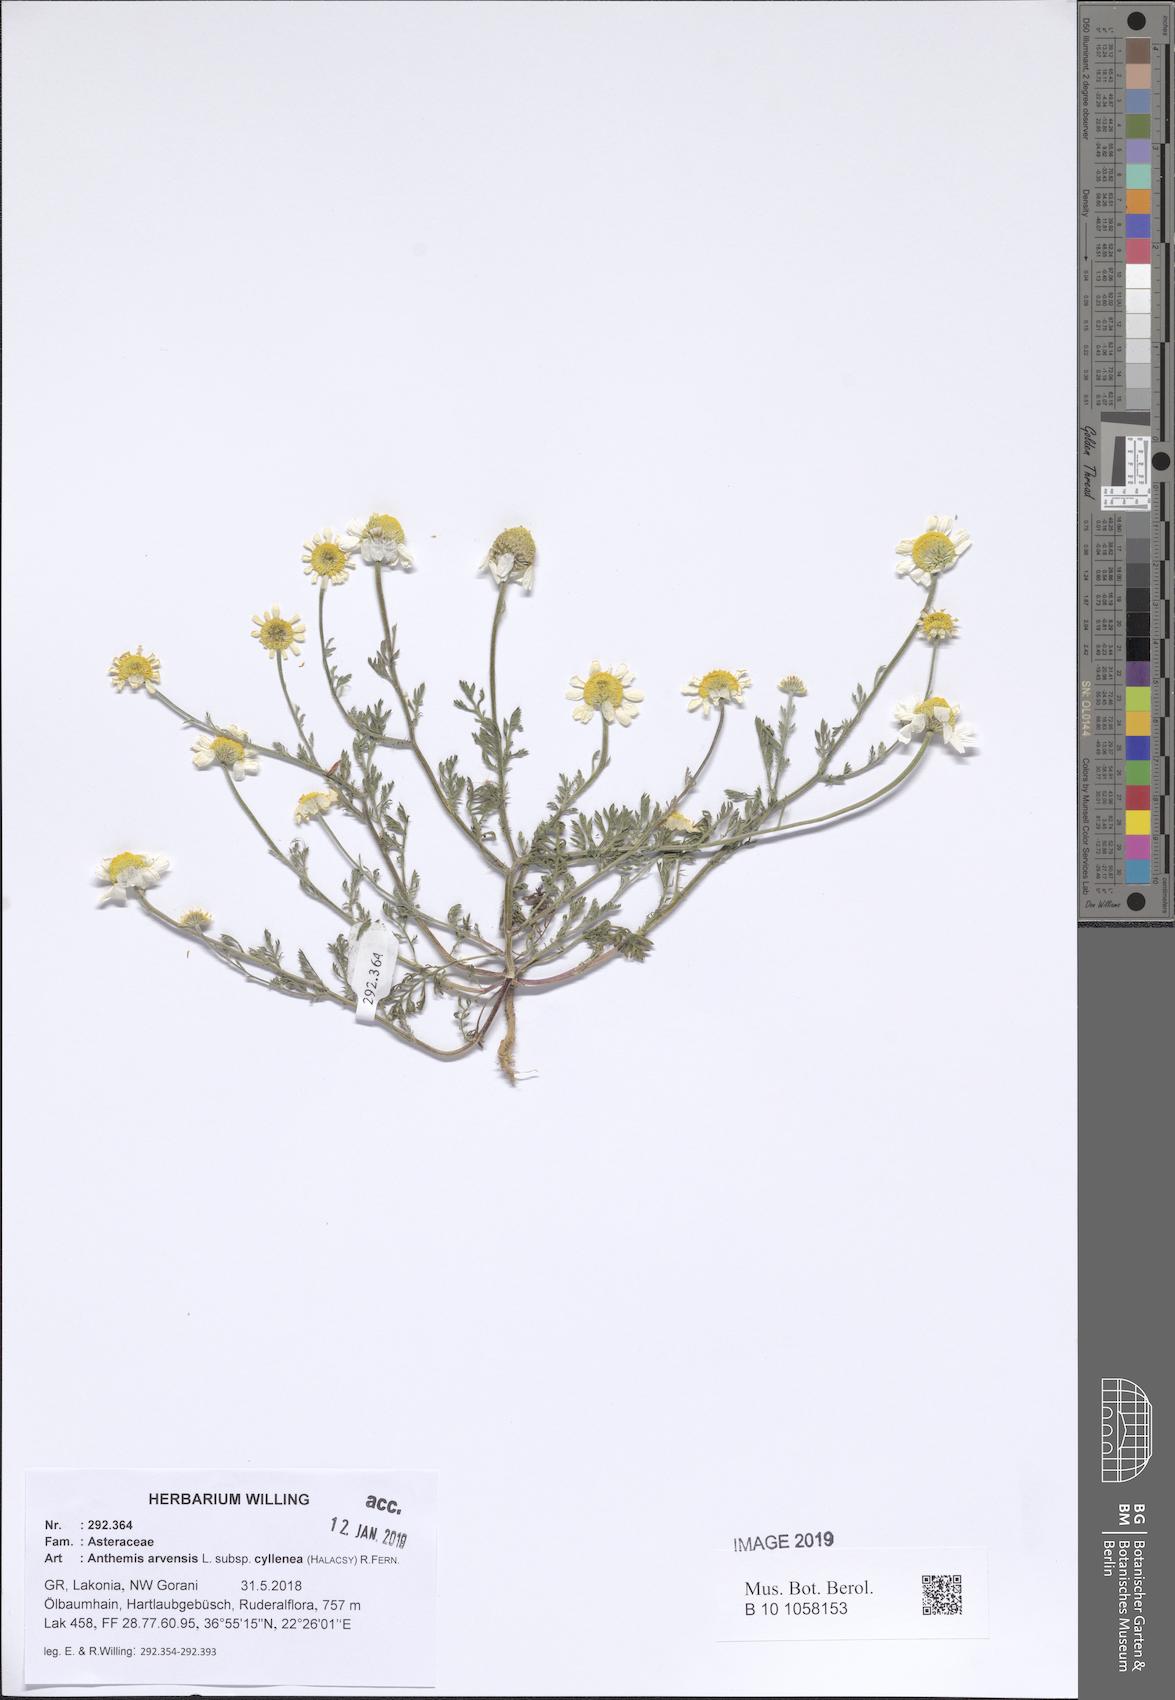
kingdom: Plantae
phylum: Tracheophyta
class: Magnoliopsida
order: Asterales
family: Asteraceae
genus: Anthemis
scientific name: Anthemis arvensis
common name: Corn chamomile
